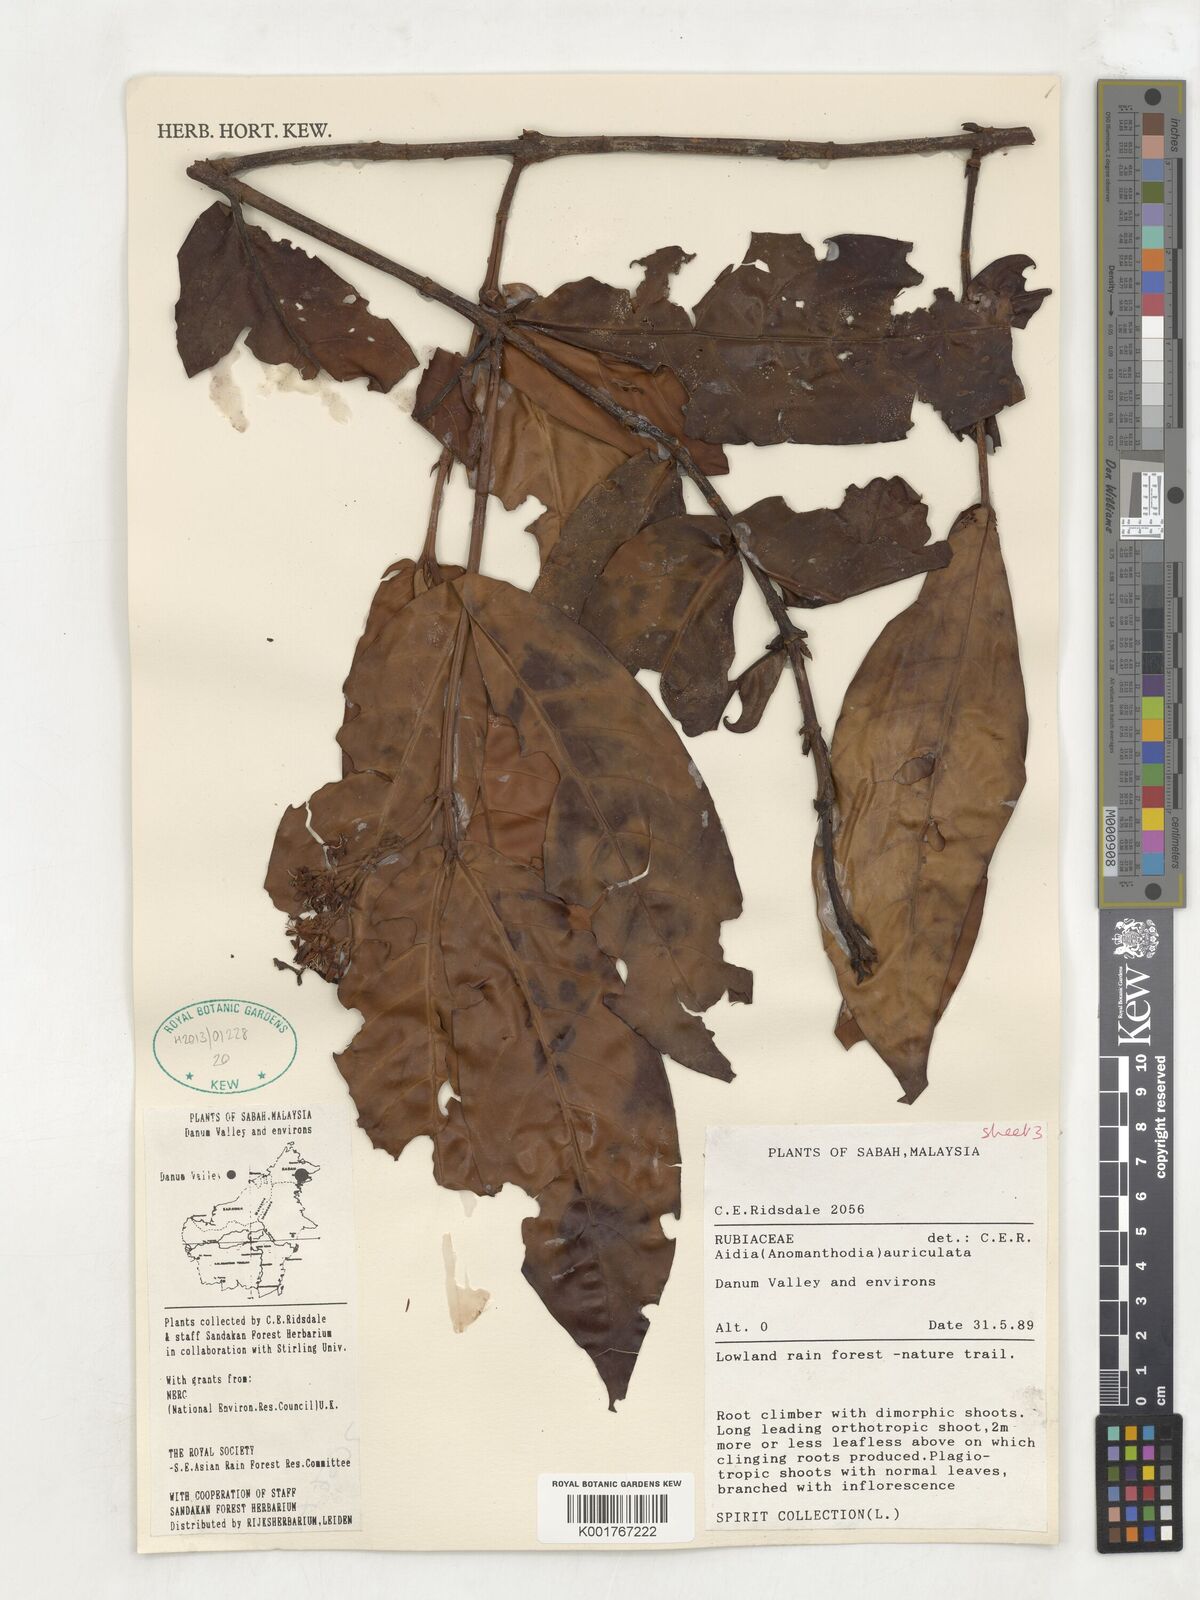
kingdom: Plantae
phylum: Tracheophyta
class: Magnoliopsida
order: Gentianales
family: Rubiaceae
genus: Aidia
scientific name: Aidia auriculata
